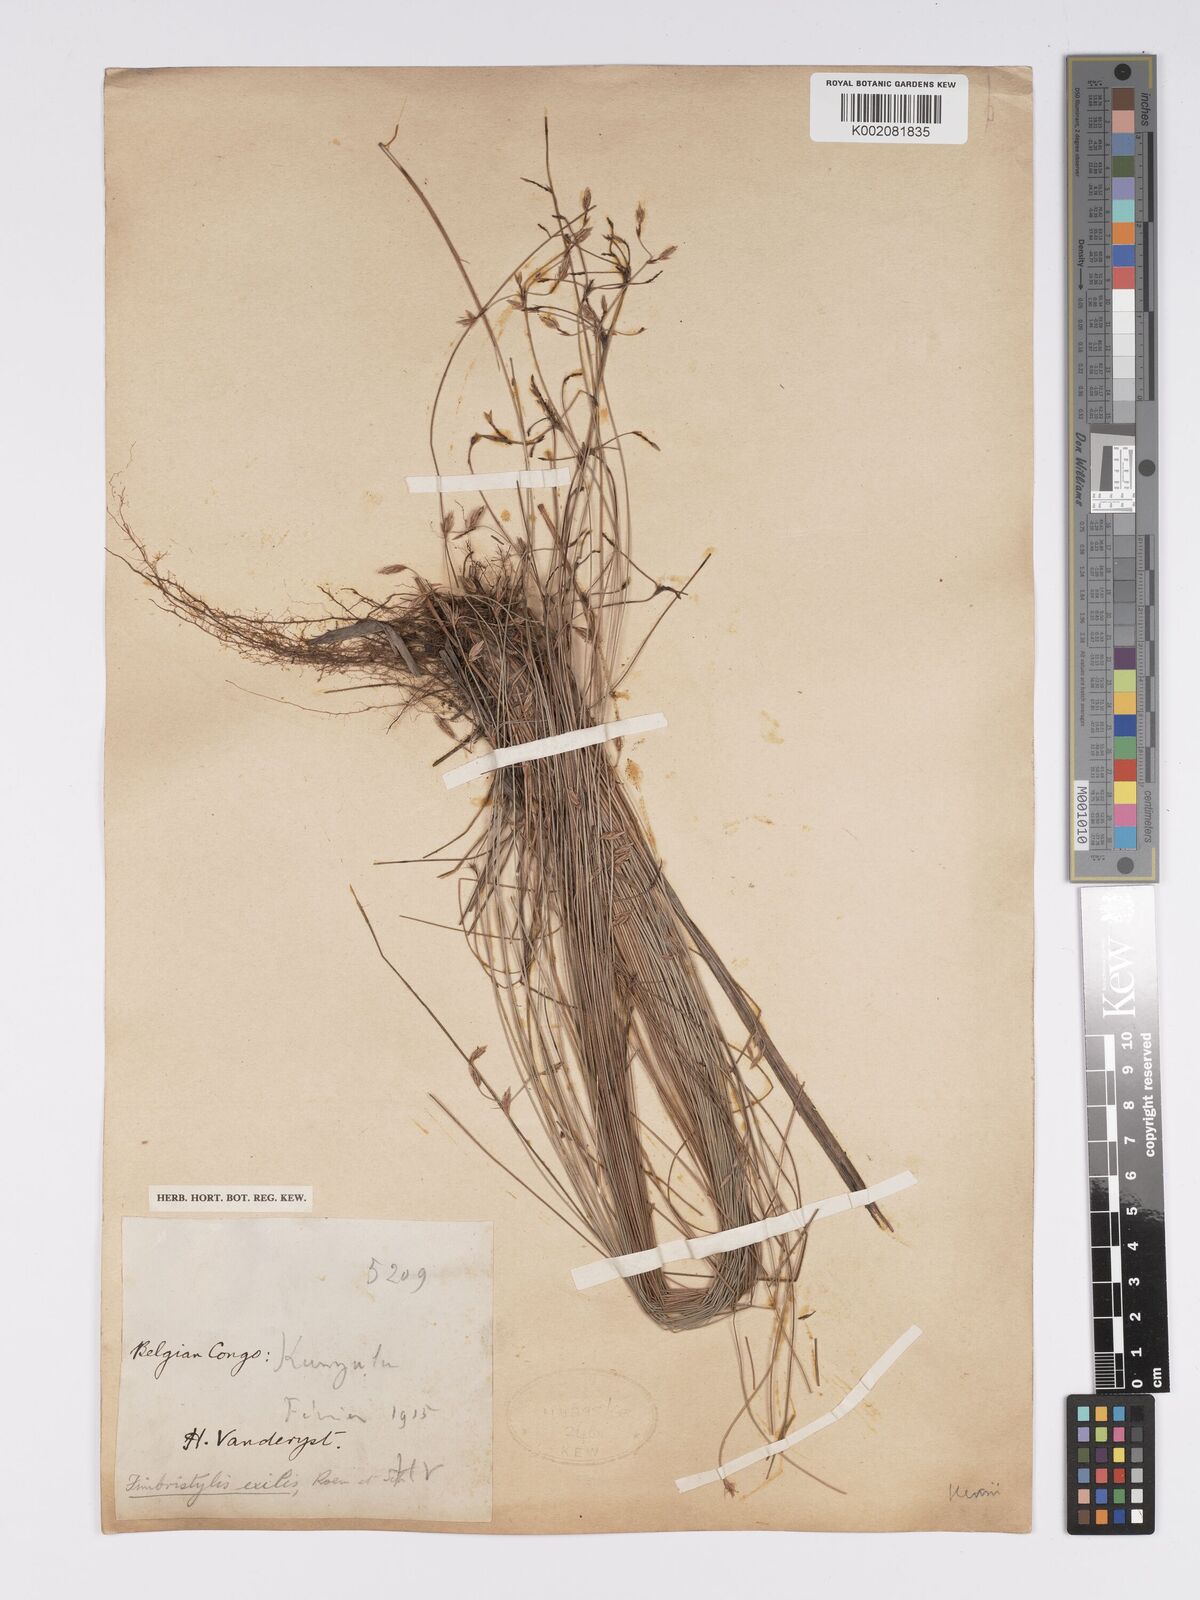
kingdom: Plantae
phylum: Tracheophyta
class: Liliopsida
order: Poales
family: Cyperaceae
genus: Bulbostylis
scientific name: Bulbostylis hispidula
